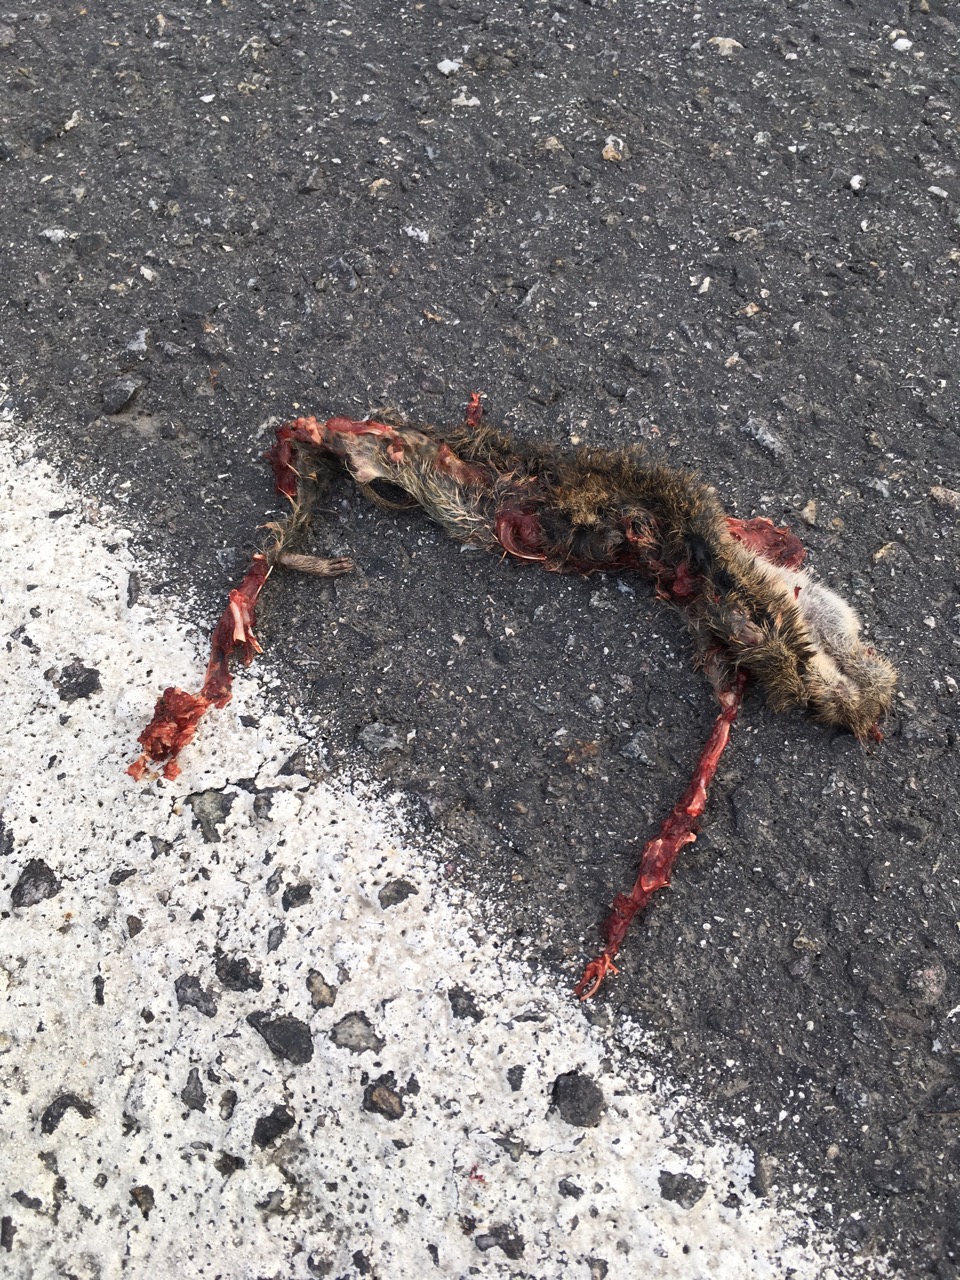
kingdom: Animalia
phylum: Chordata
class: Mammalia
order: Rodentia
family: Cricetidae
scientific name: Cricetidae
